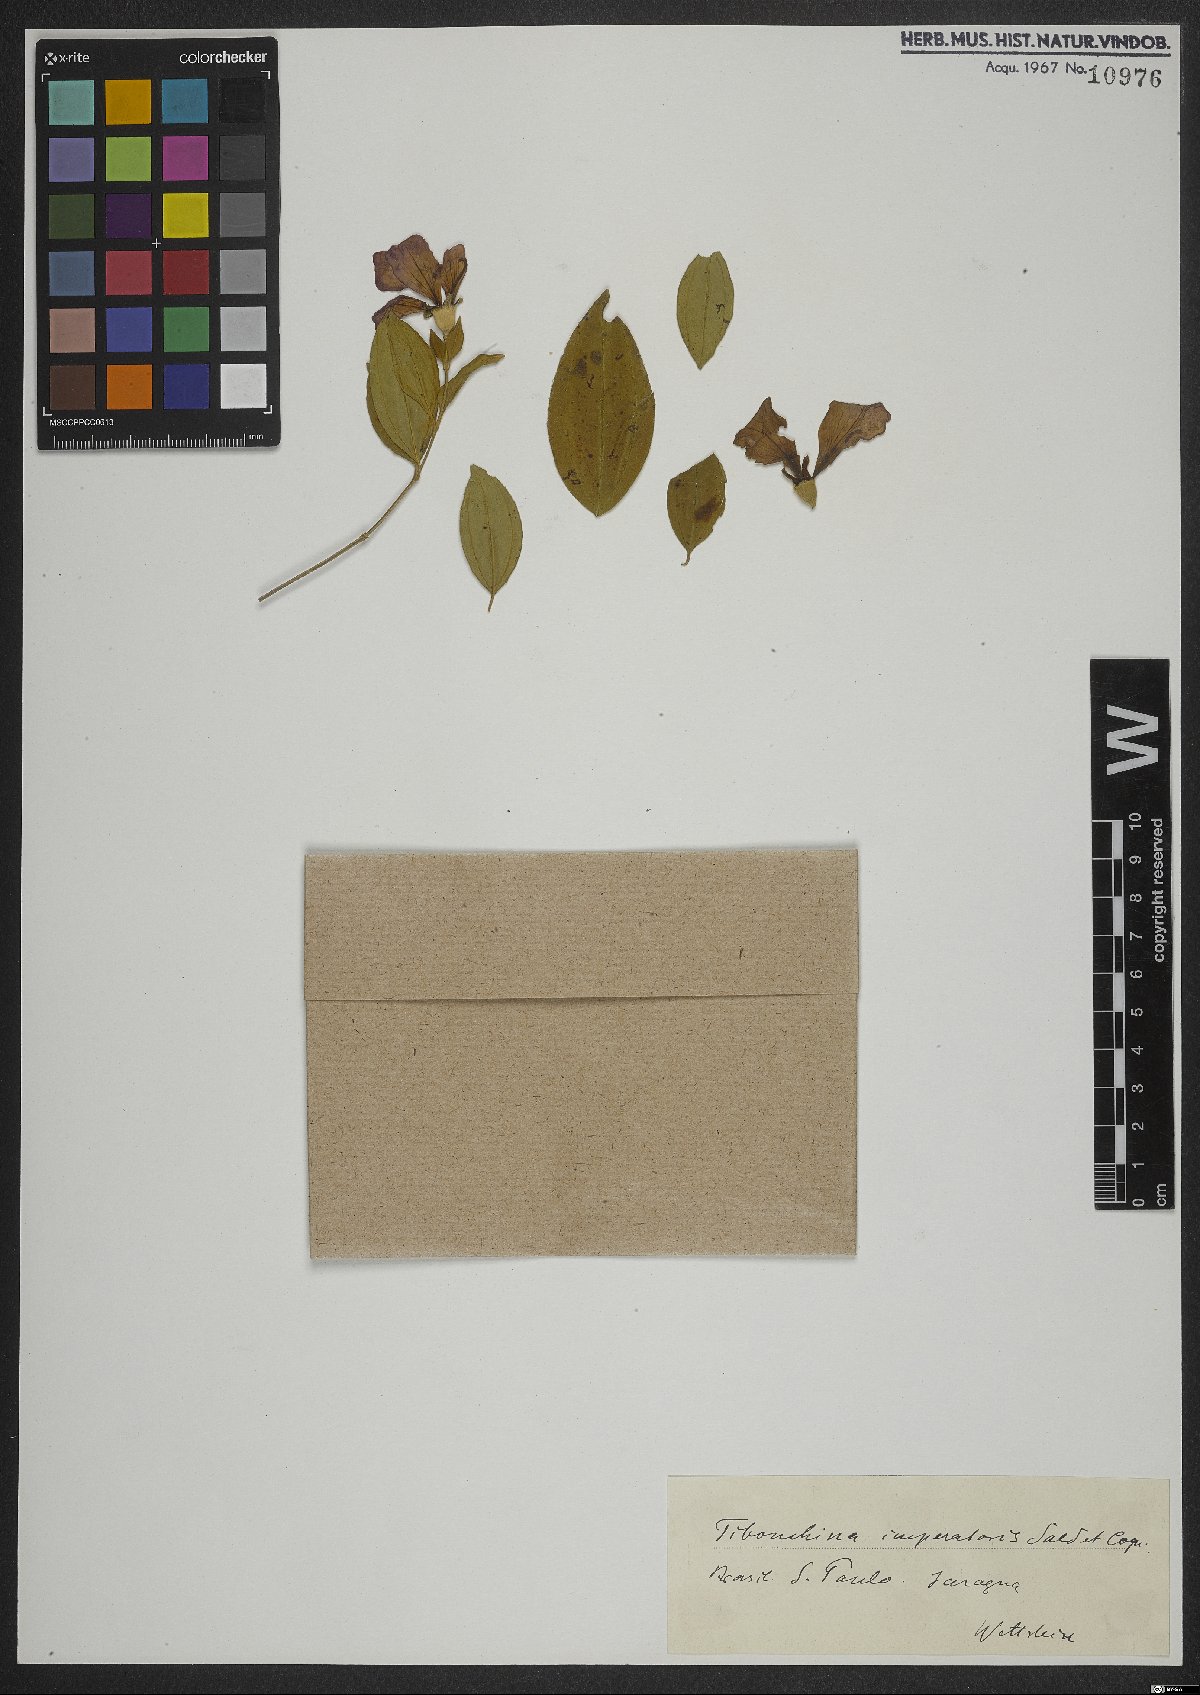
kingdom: Plantae
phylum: Tracheophyta
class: Magnoliopsida
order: Myrtales
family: Melastomataceae
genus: Pleroma
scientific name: Pleroma sellowianum
